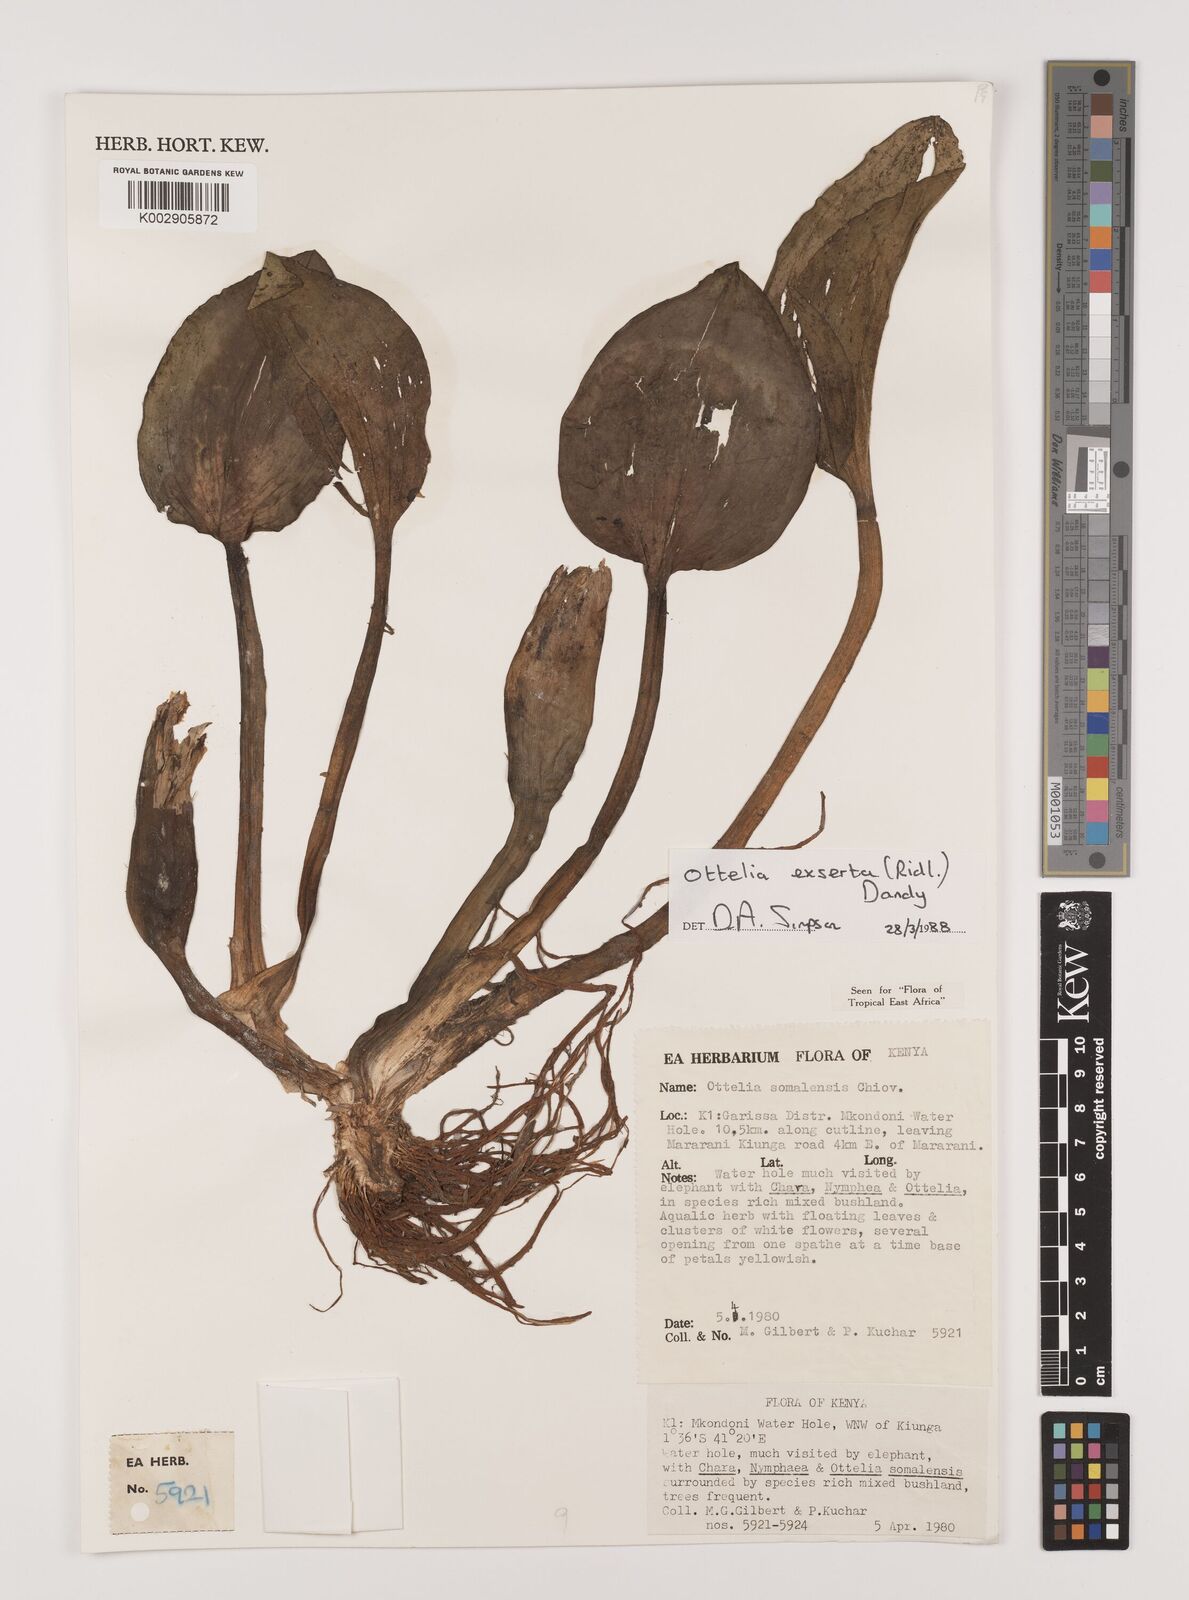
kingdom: Plantae
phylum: Tracheophyta
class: Liliopsida
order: Alismatales
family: Hydrocharitaceae
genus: Ottelia
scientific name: Ottelia exserta
